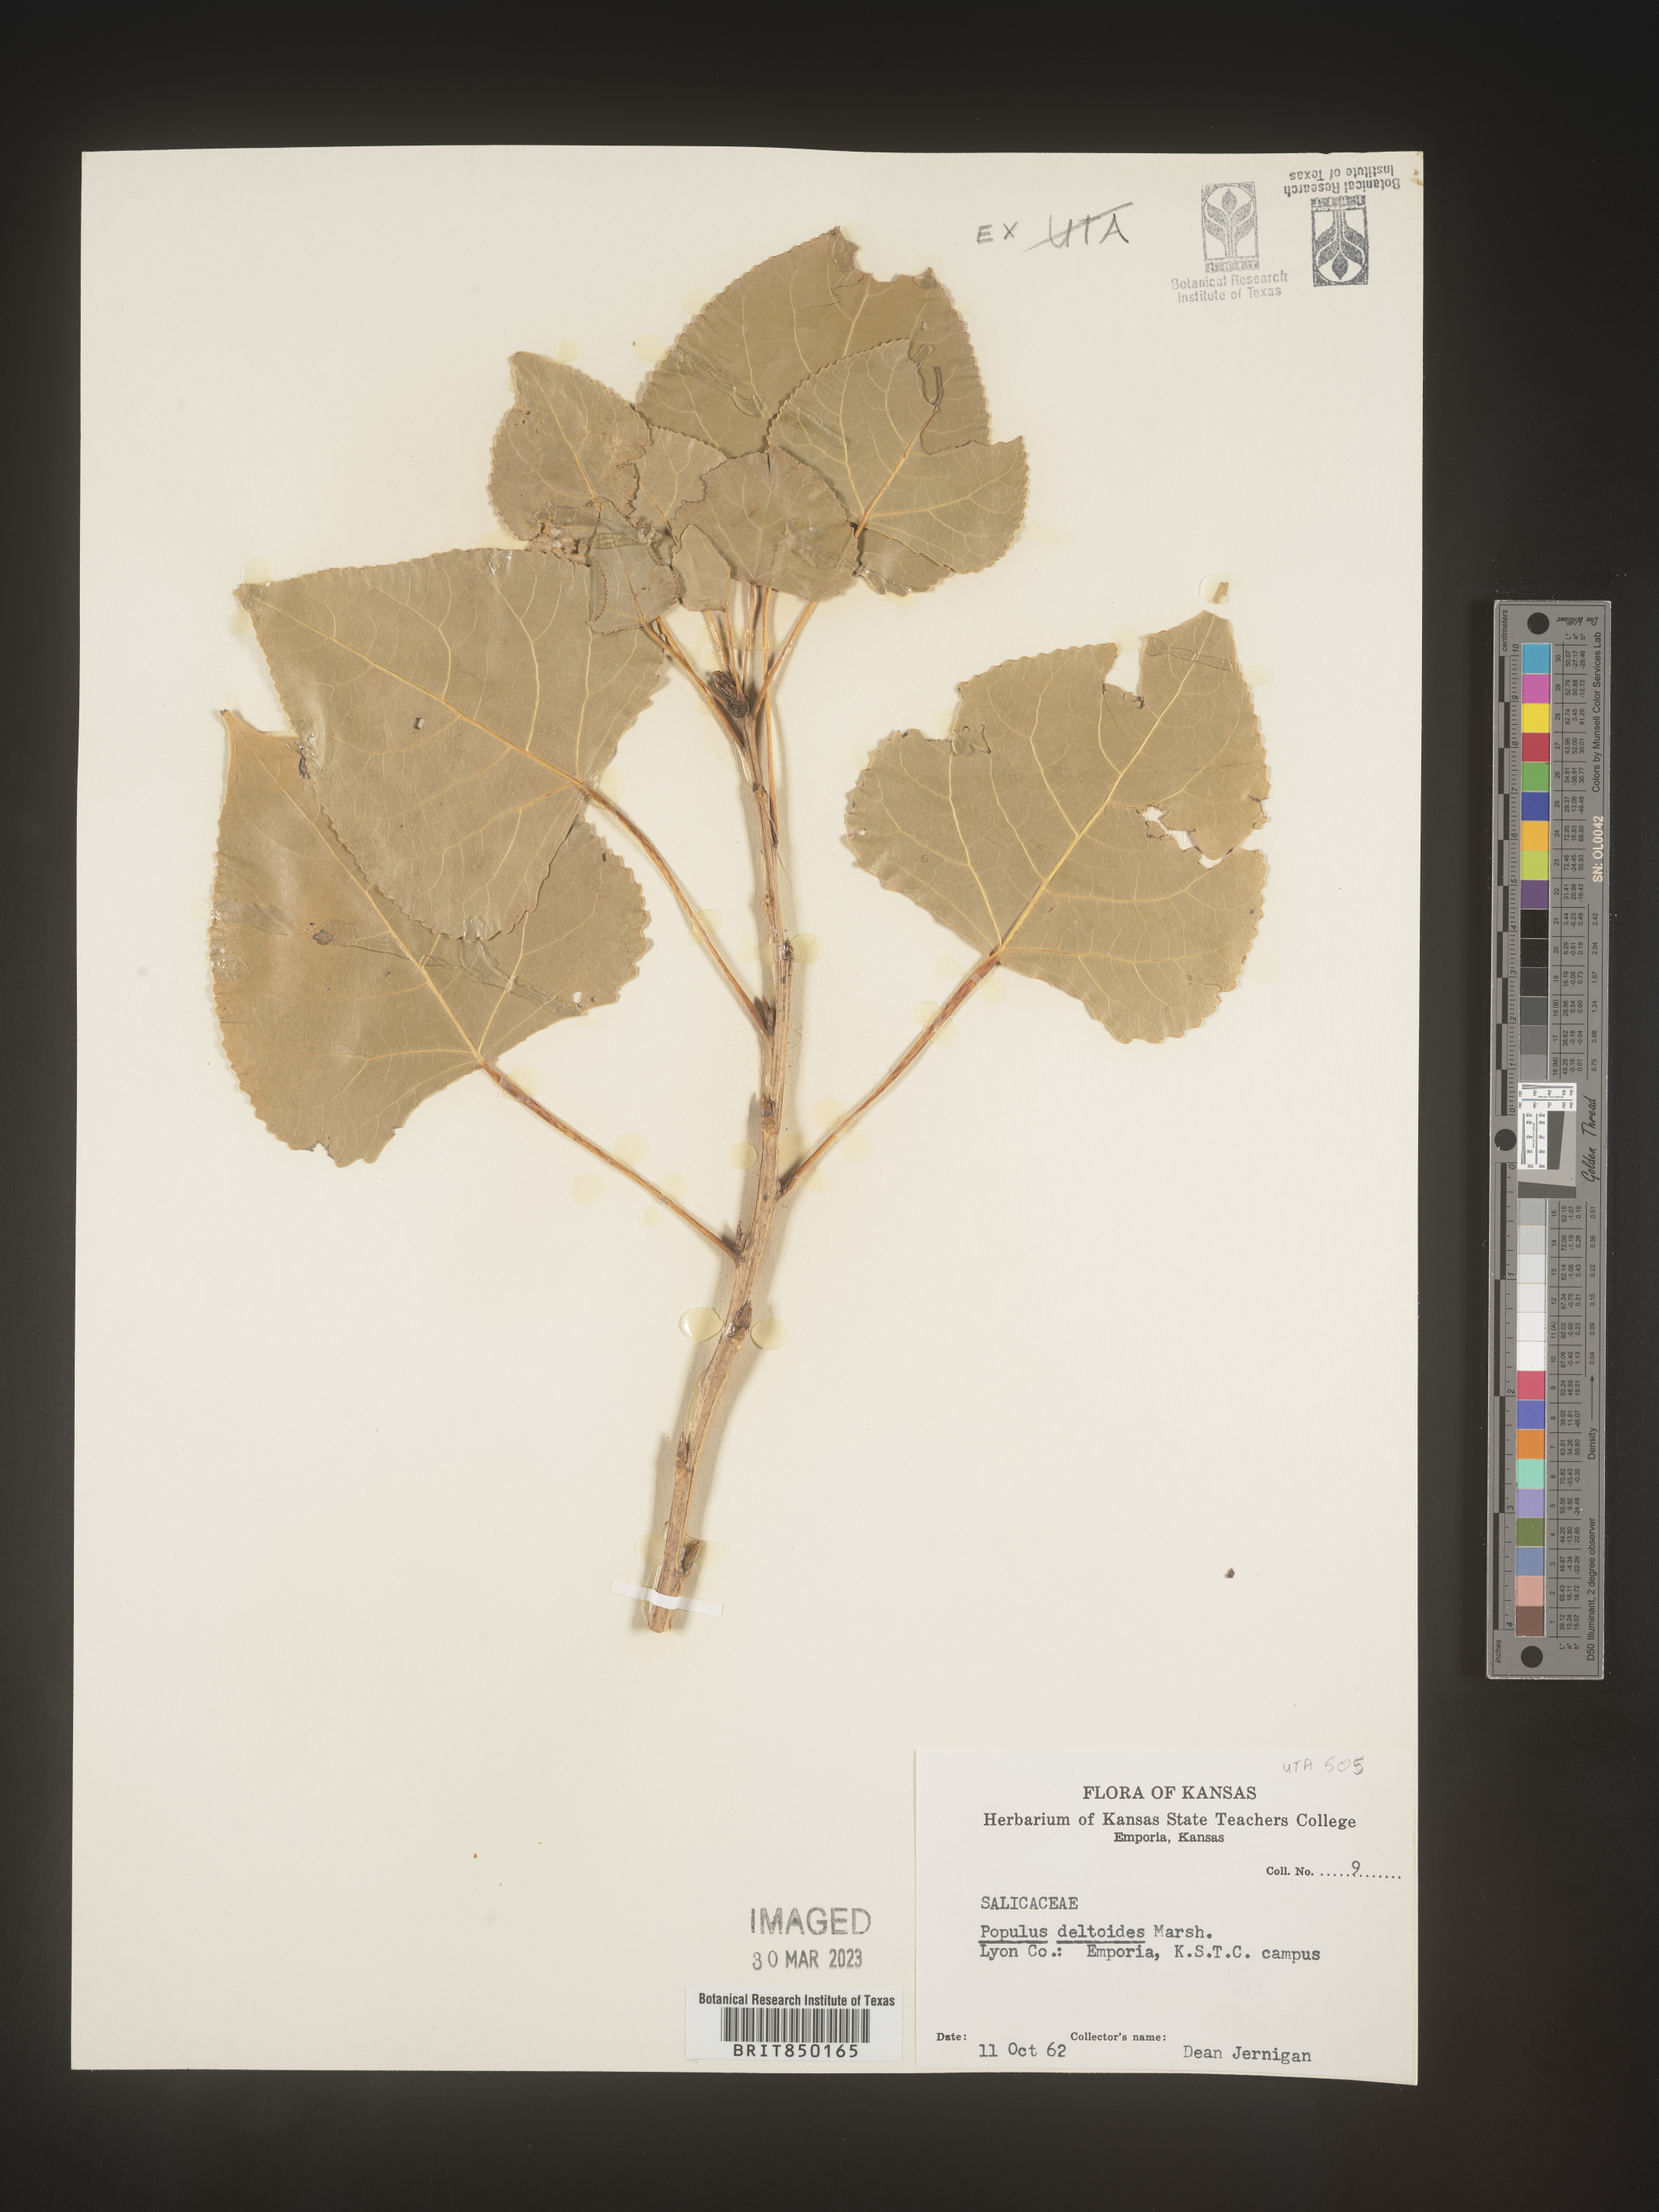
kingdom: Plantae
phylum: Tracheophyta
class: Magnoliopsida
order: Malpighiales
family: Salicaceae
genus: Populus
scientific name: Populus deltoides
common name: Eastern cottonwood
